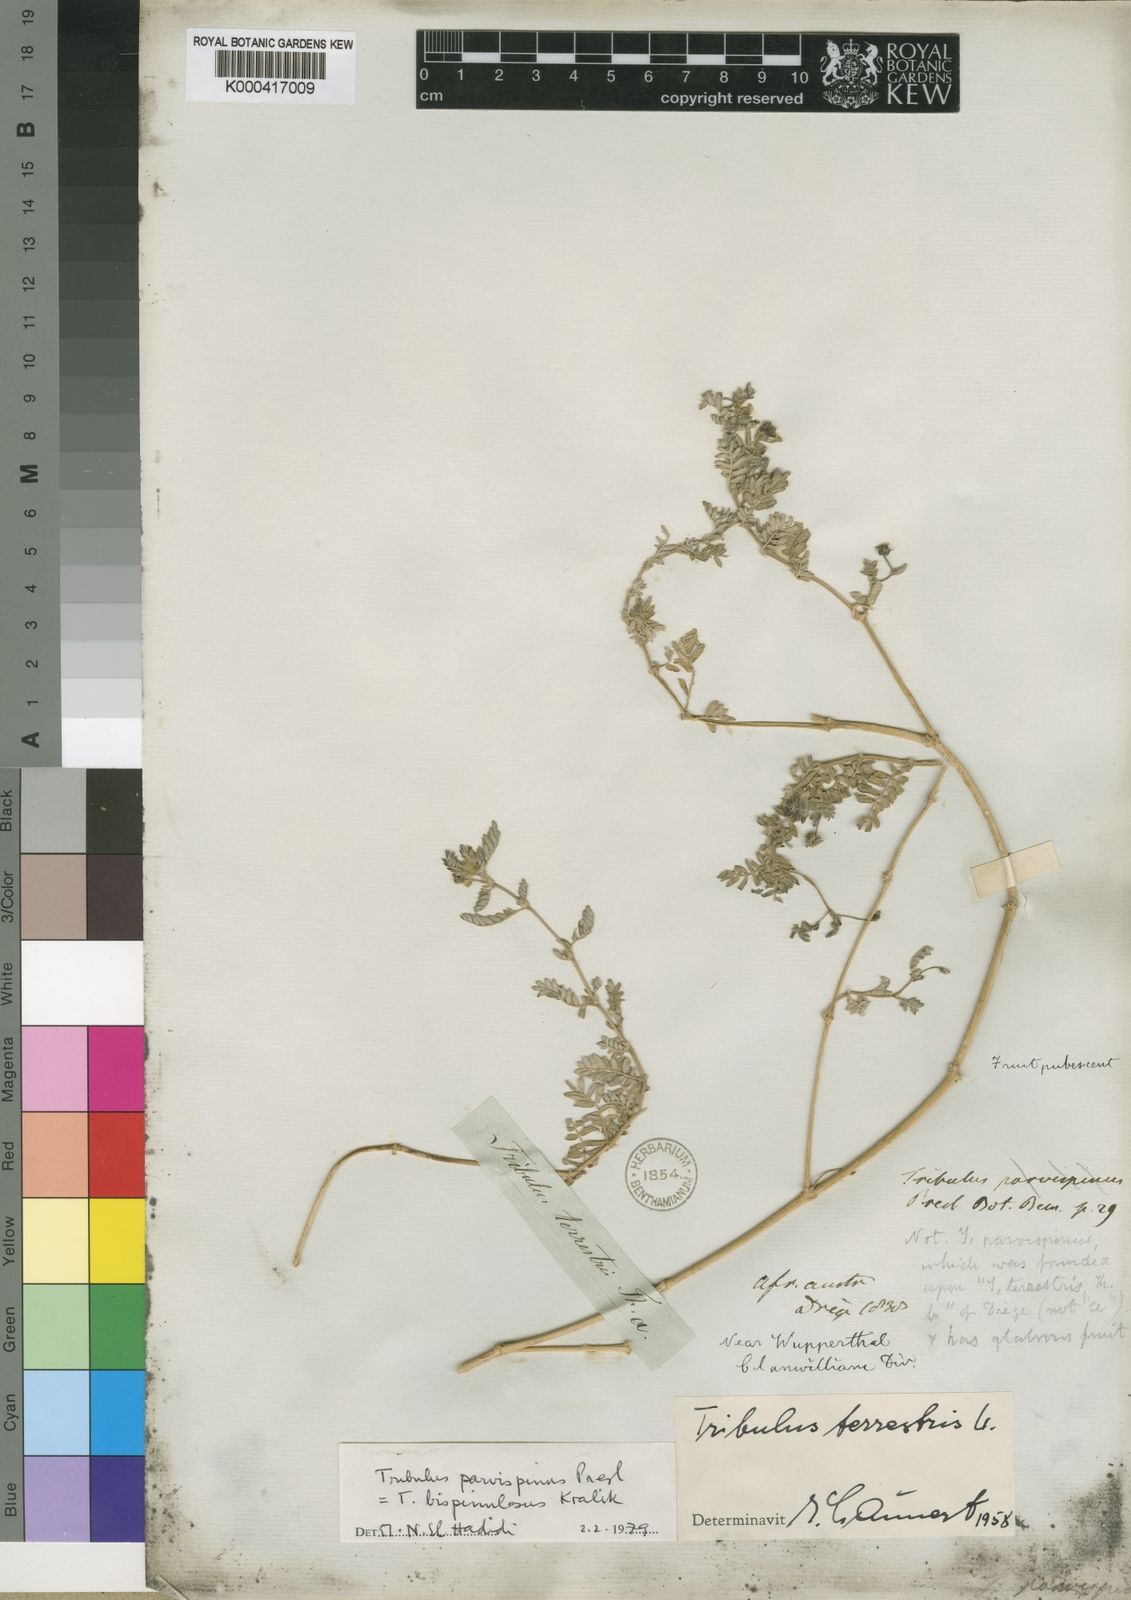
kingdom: Plantae
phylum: Tracheophyta
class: Magnoliopsida
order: Zygophyllales
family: Zygophyllaceae
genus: Tribulus
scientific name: Tribulus parvispinus
